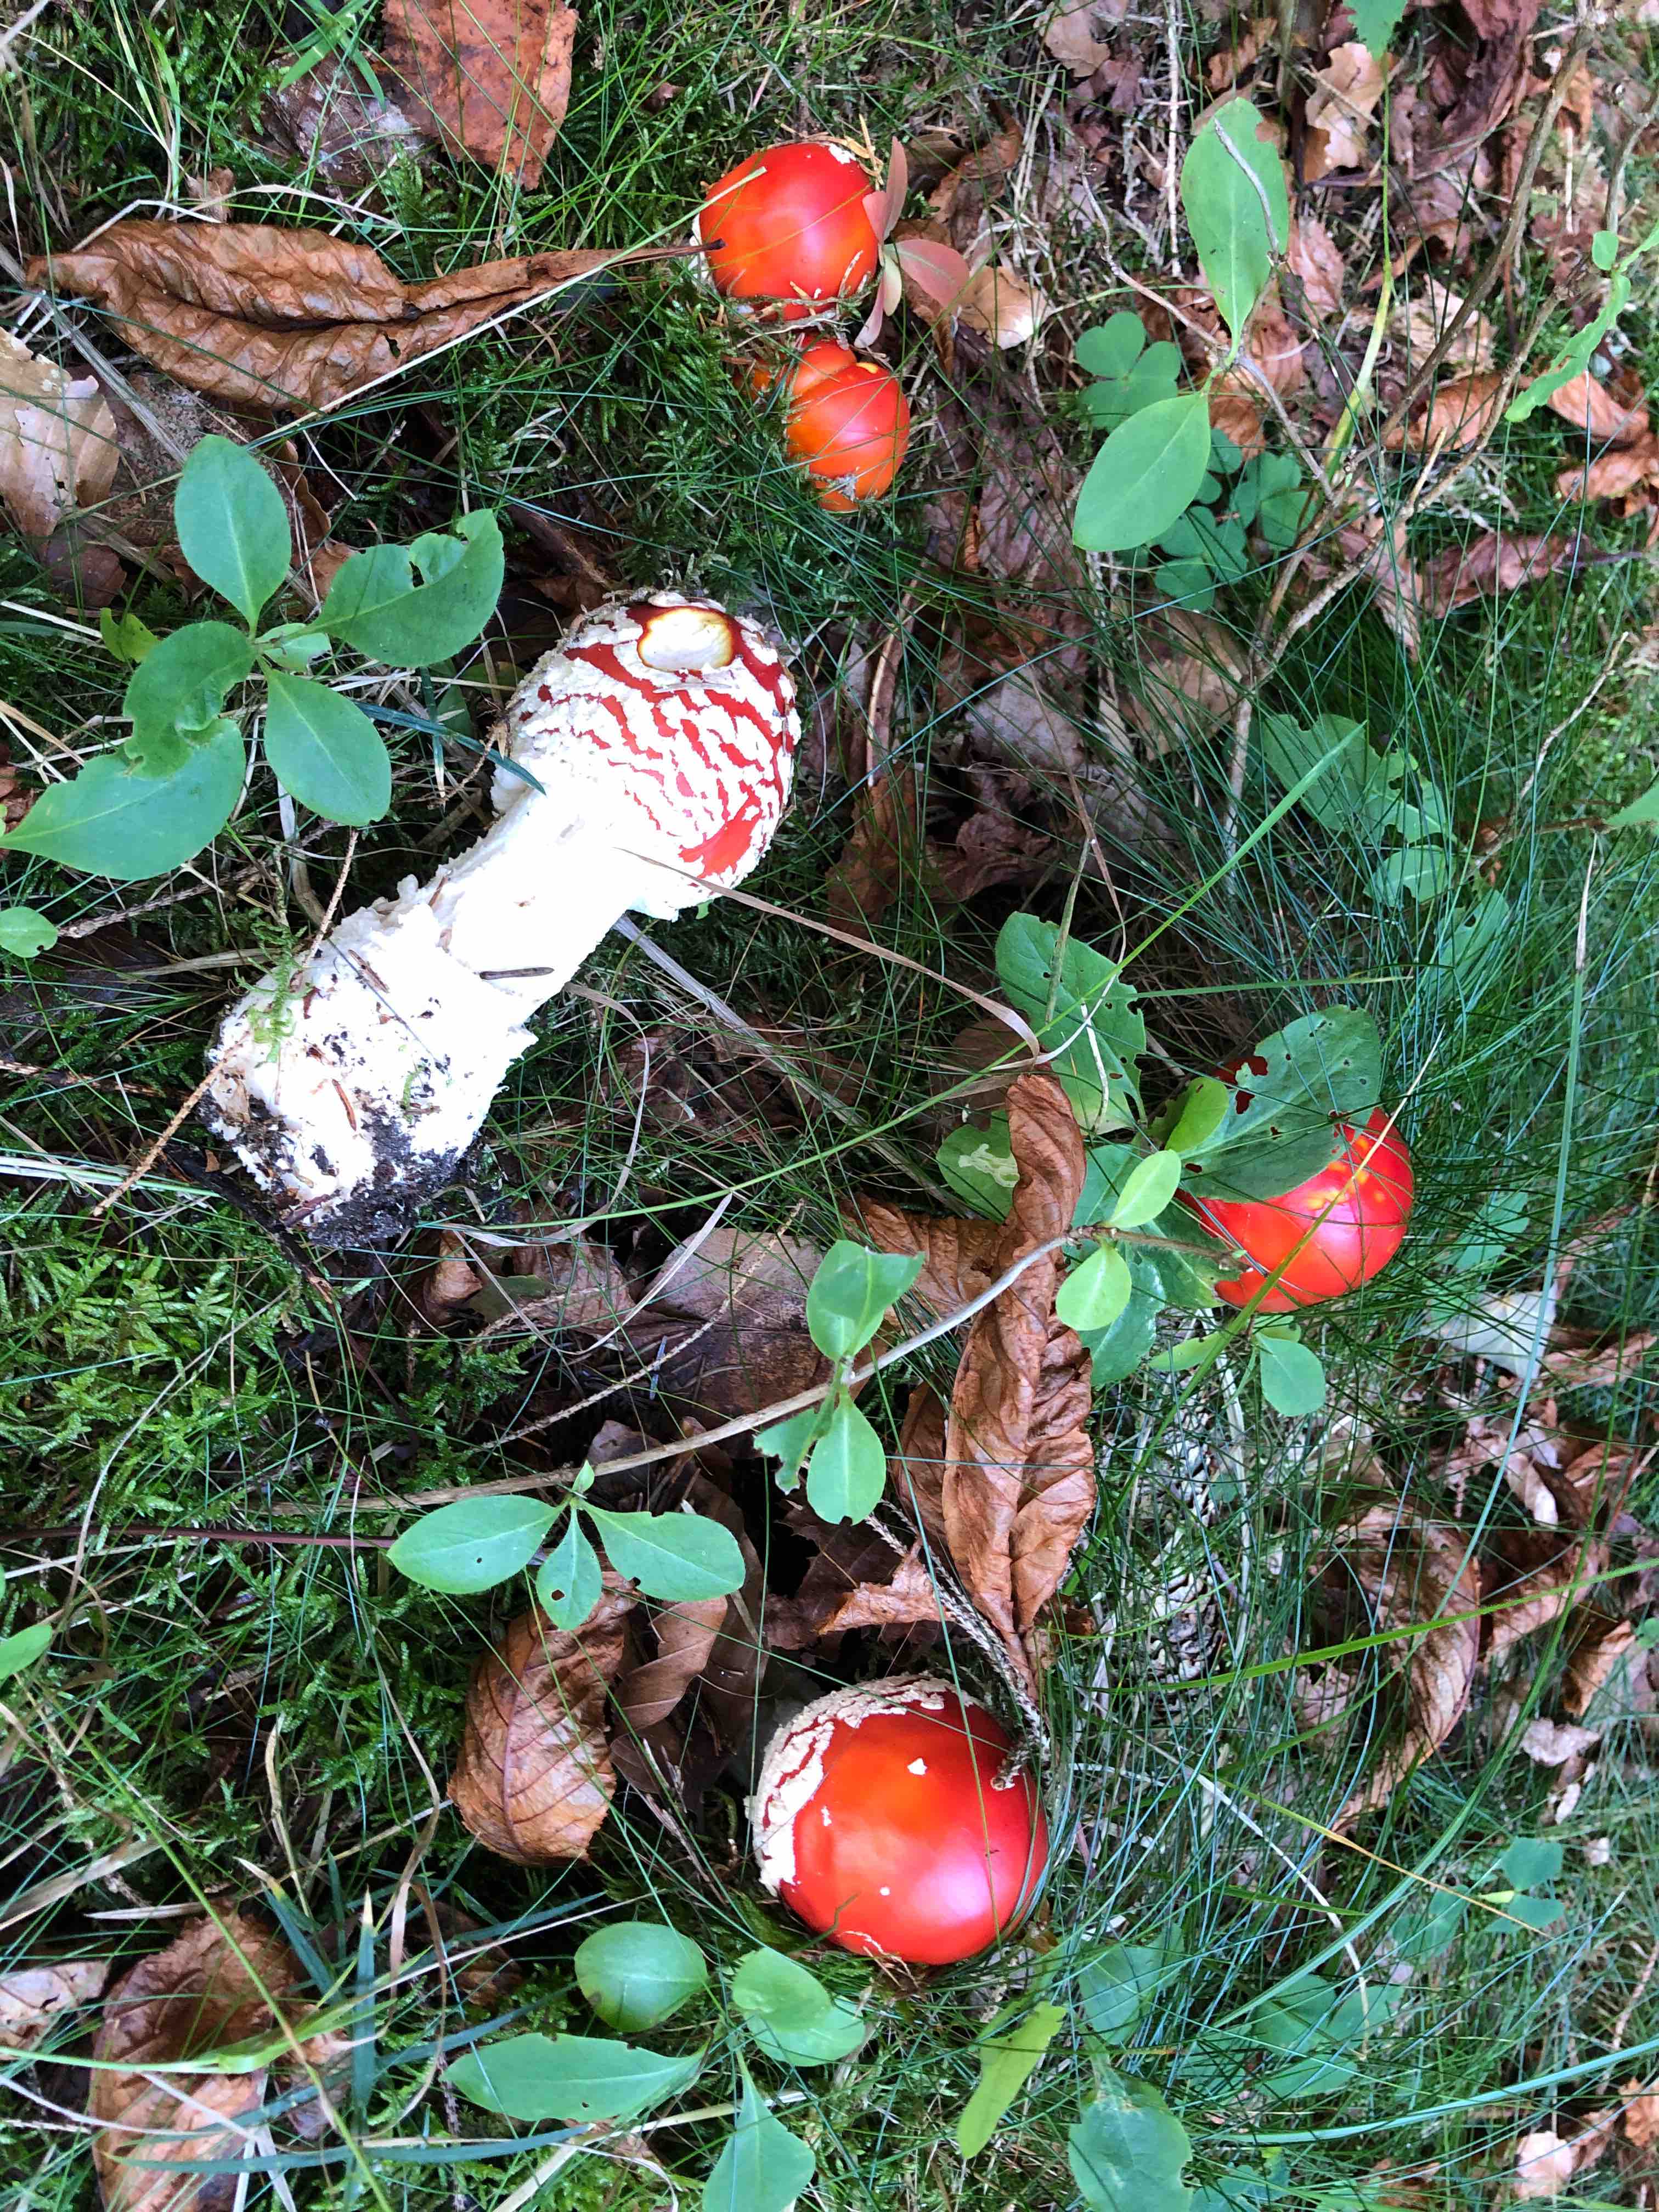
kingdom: Fungi
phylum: Basidiomycota
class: Agaricomycetes
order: Agaricales
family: Amanitaceae
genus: Amanita
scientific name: Amanita muscaria
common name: rød fluesvamp
